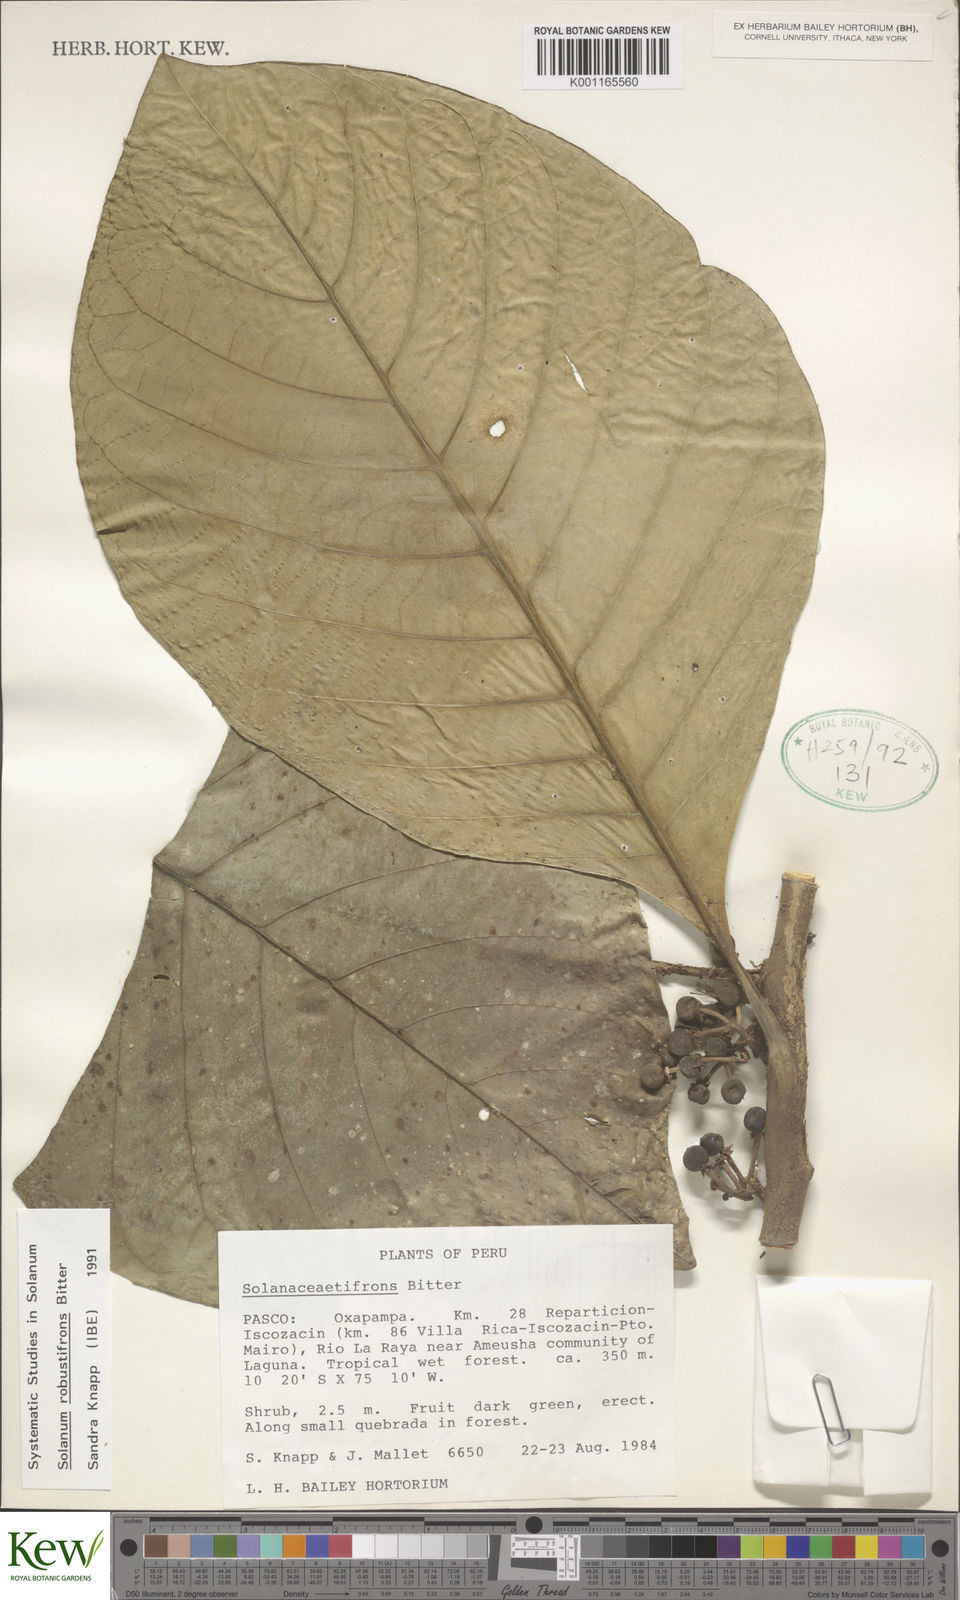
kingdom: Plantae
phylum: Tracheophyta
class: Magnoliopsida
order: Solanales
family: Solanaceae
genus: Solanum
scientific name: Solanum robustifrons
